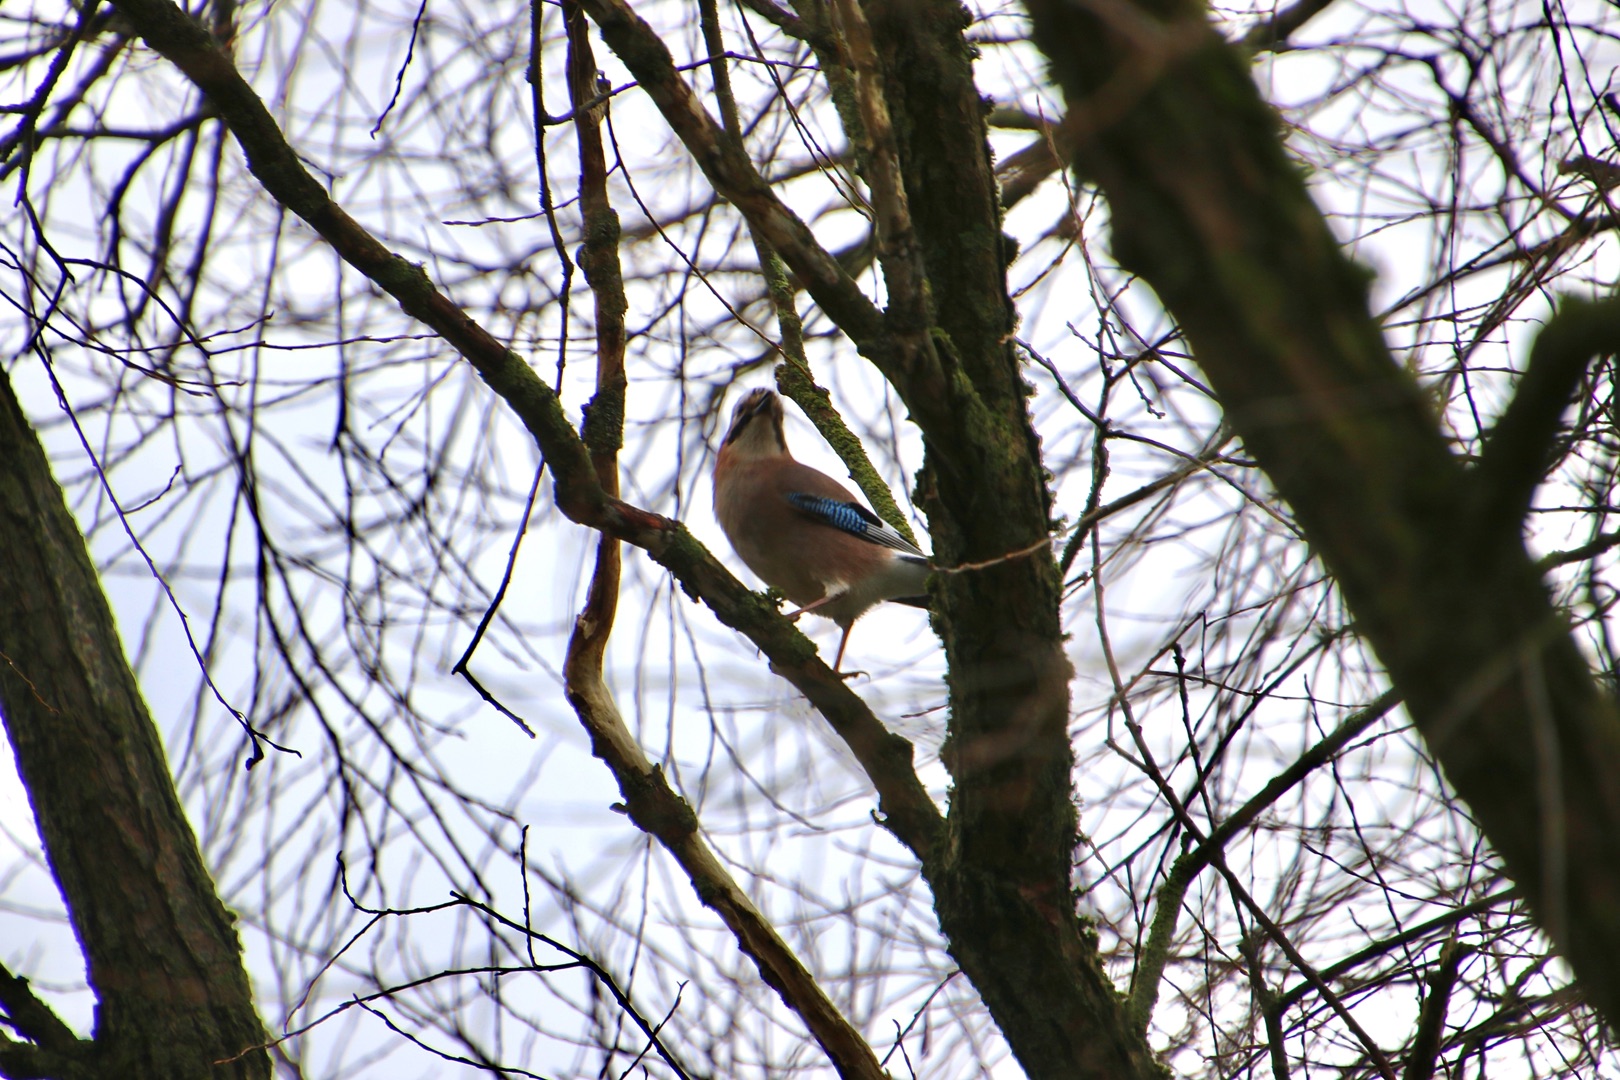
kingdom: Animalia
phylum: Chordata
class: Aves
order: Passeriformes
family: Corvidae
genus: Garrulus
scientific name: Garrulus glandarius
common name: Skovskade
